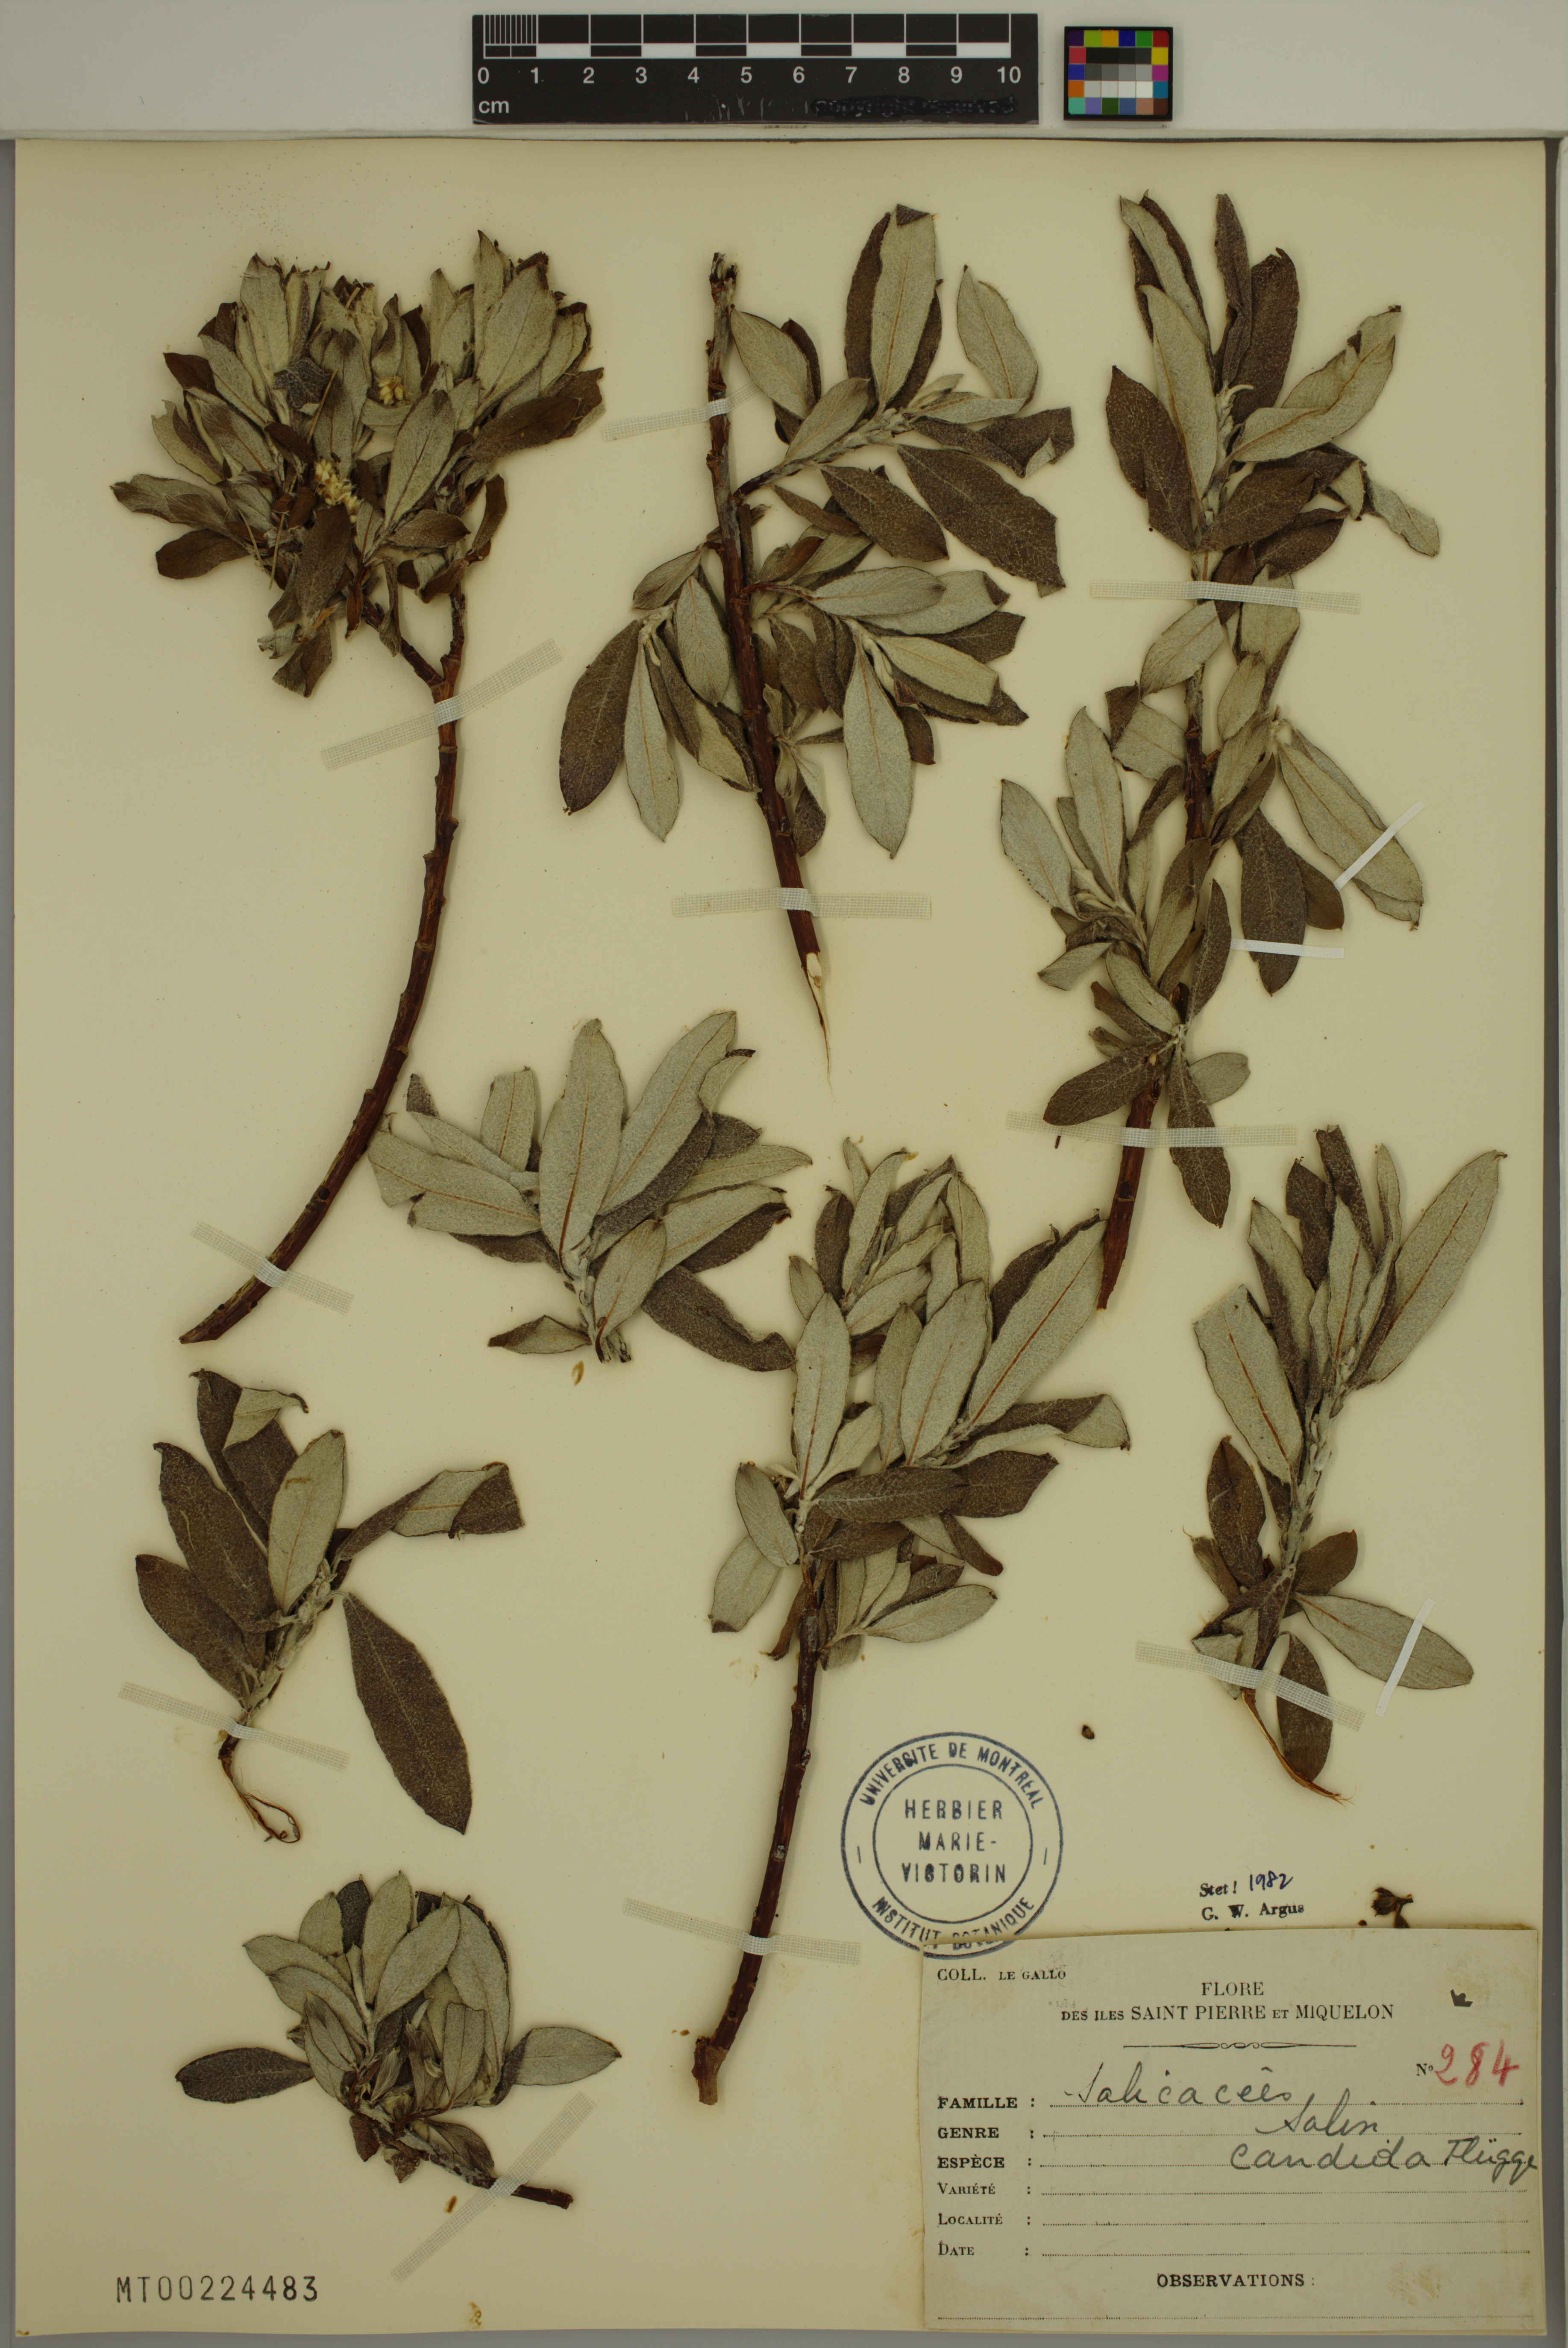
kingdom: Plantae
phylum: Tracheophyta
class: Magnoliopsida
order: Malpighiales
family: Salicaceae
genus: Salix
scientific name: Salix candida
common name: Hoary willow
